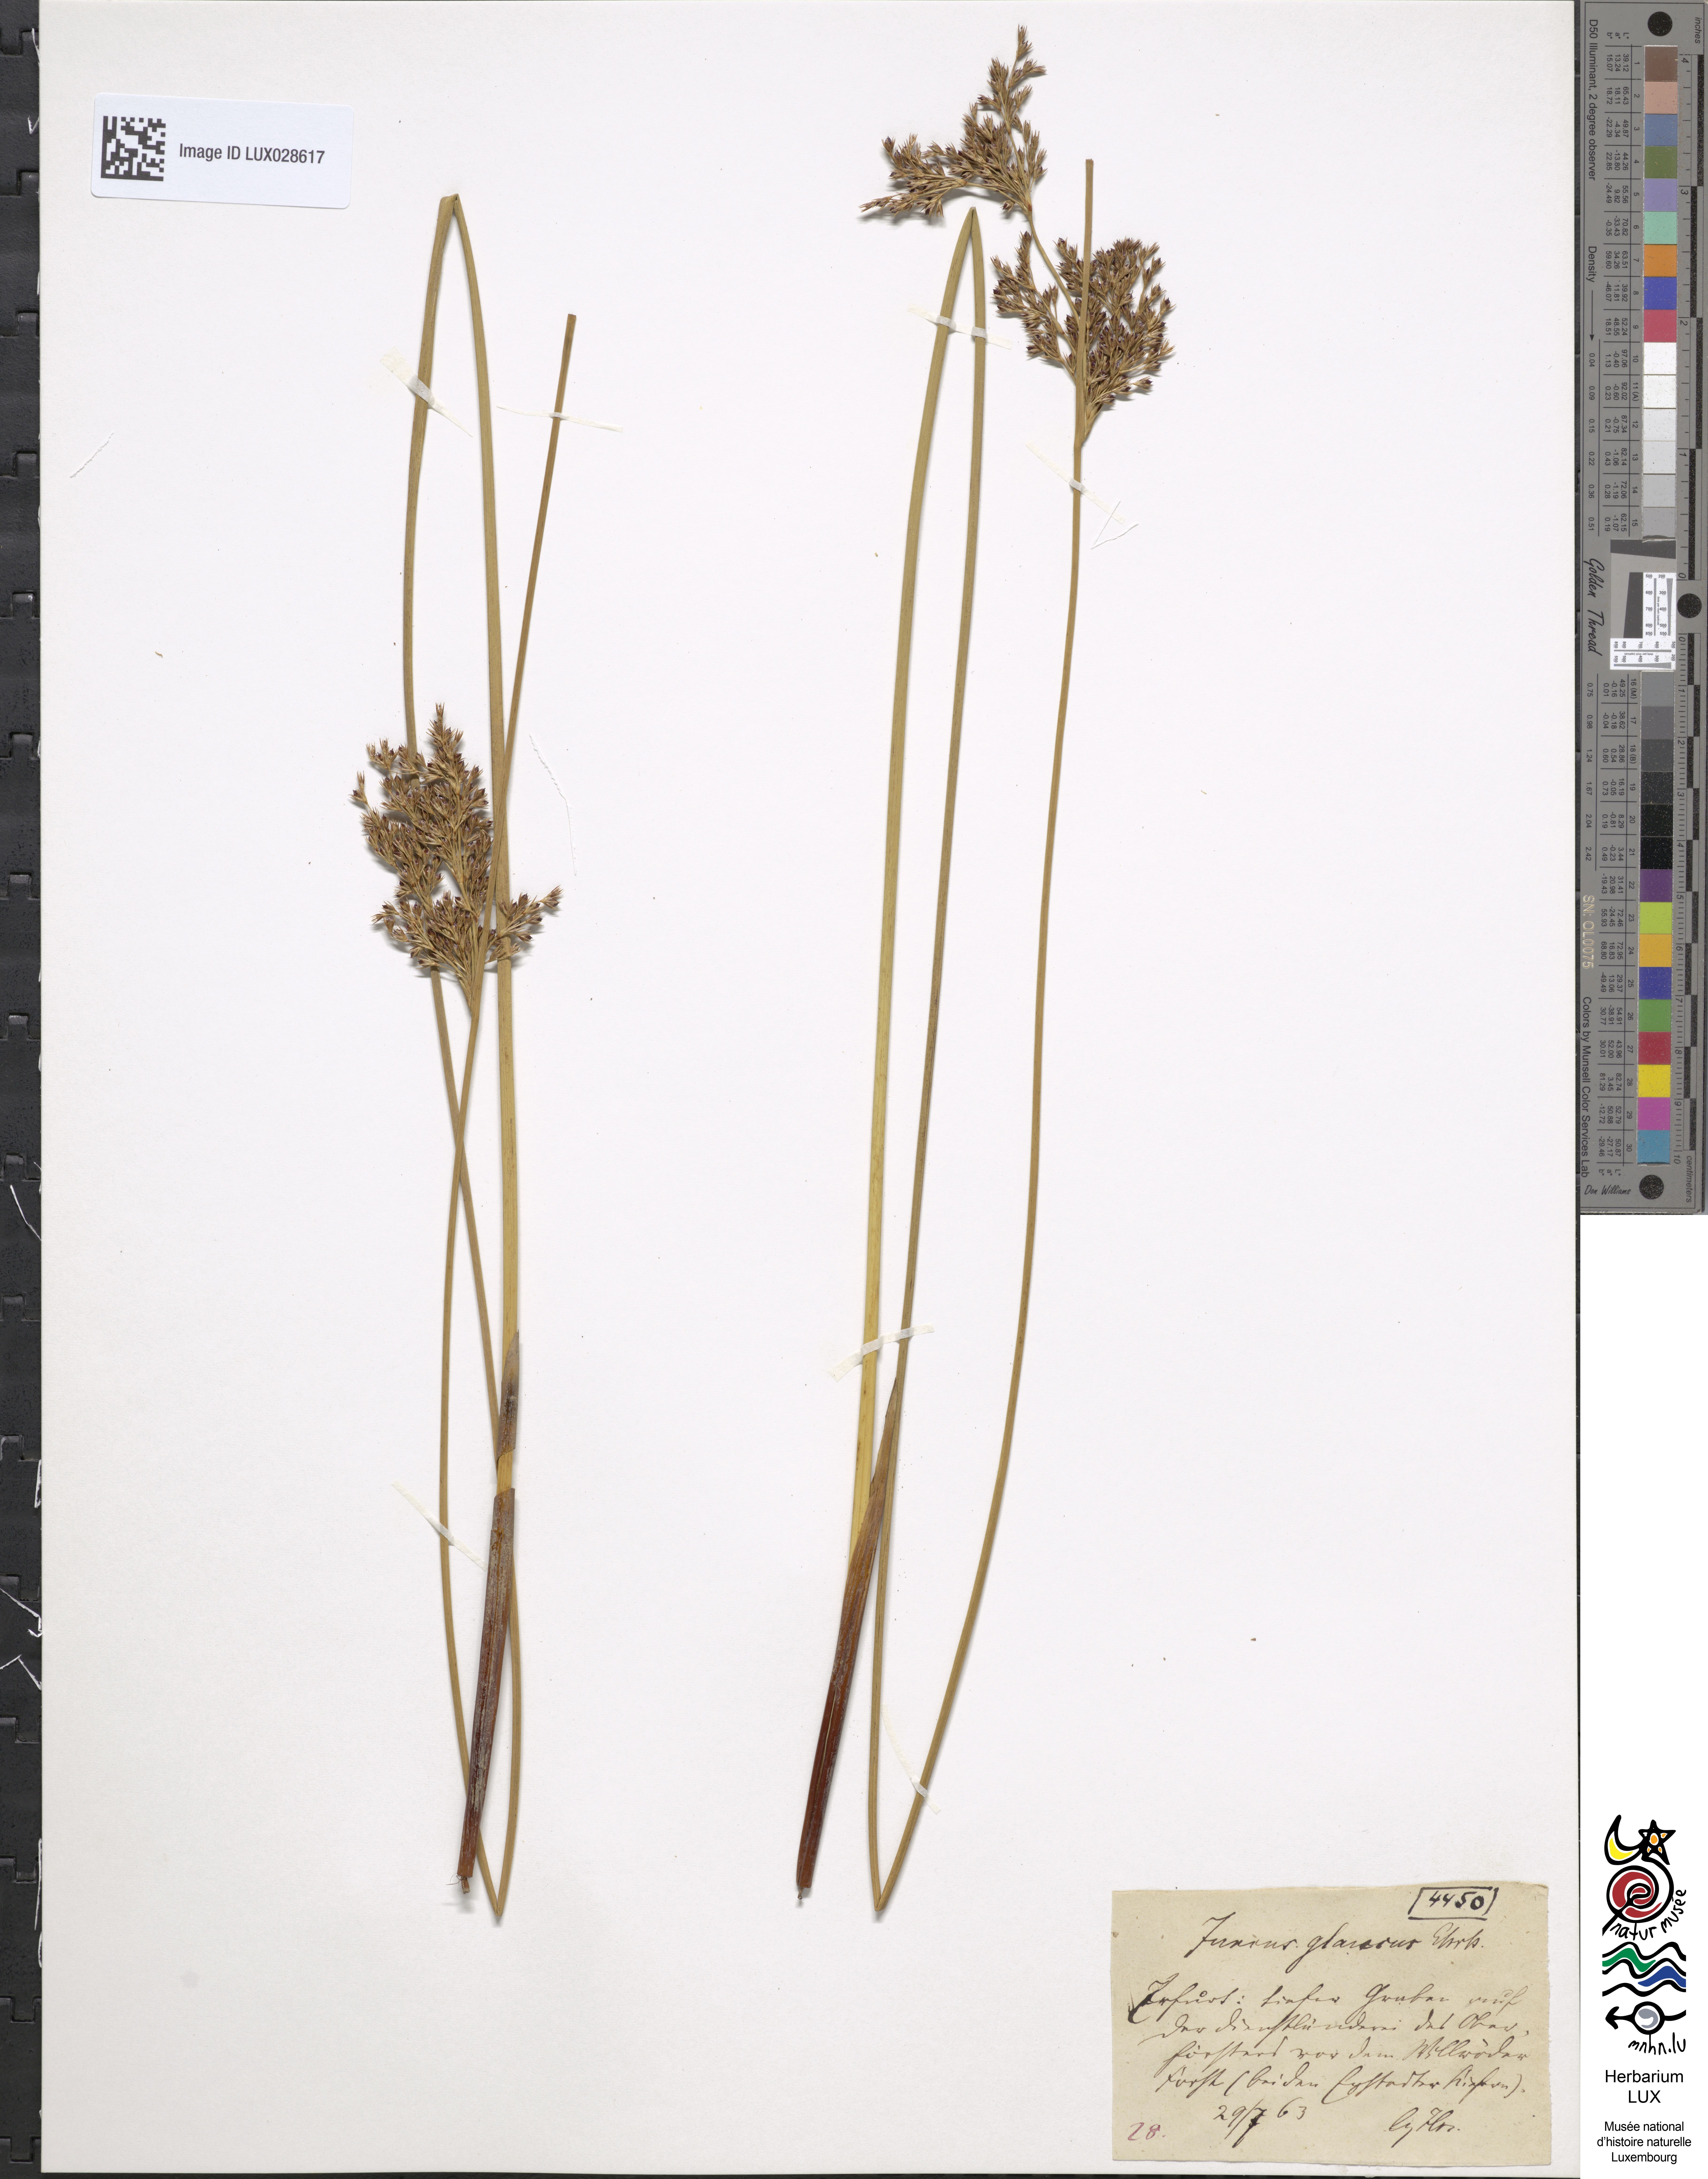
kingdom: Plantae
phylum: Tracheophyta
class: Liliopsida
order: Poales
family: Juncaceae
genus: Juncus
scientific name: Juncus inflexus
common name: Hard rush
